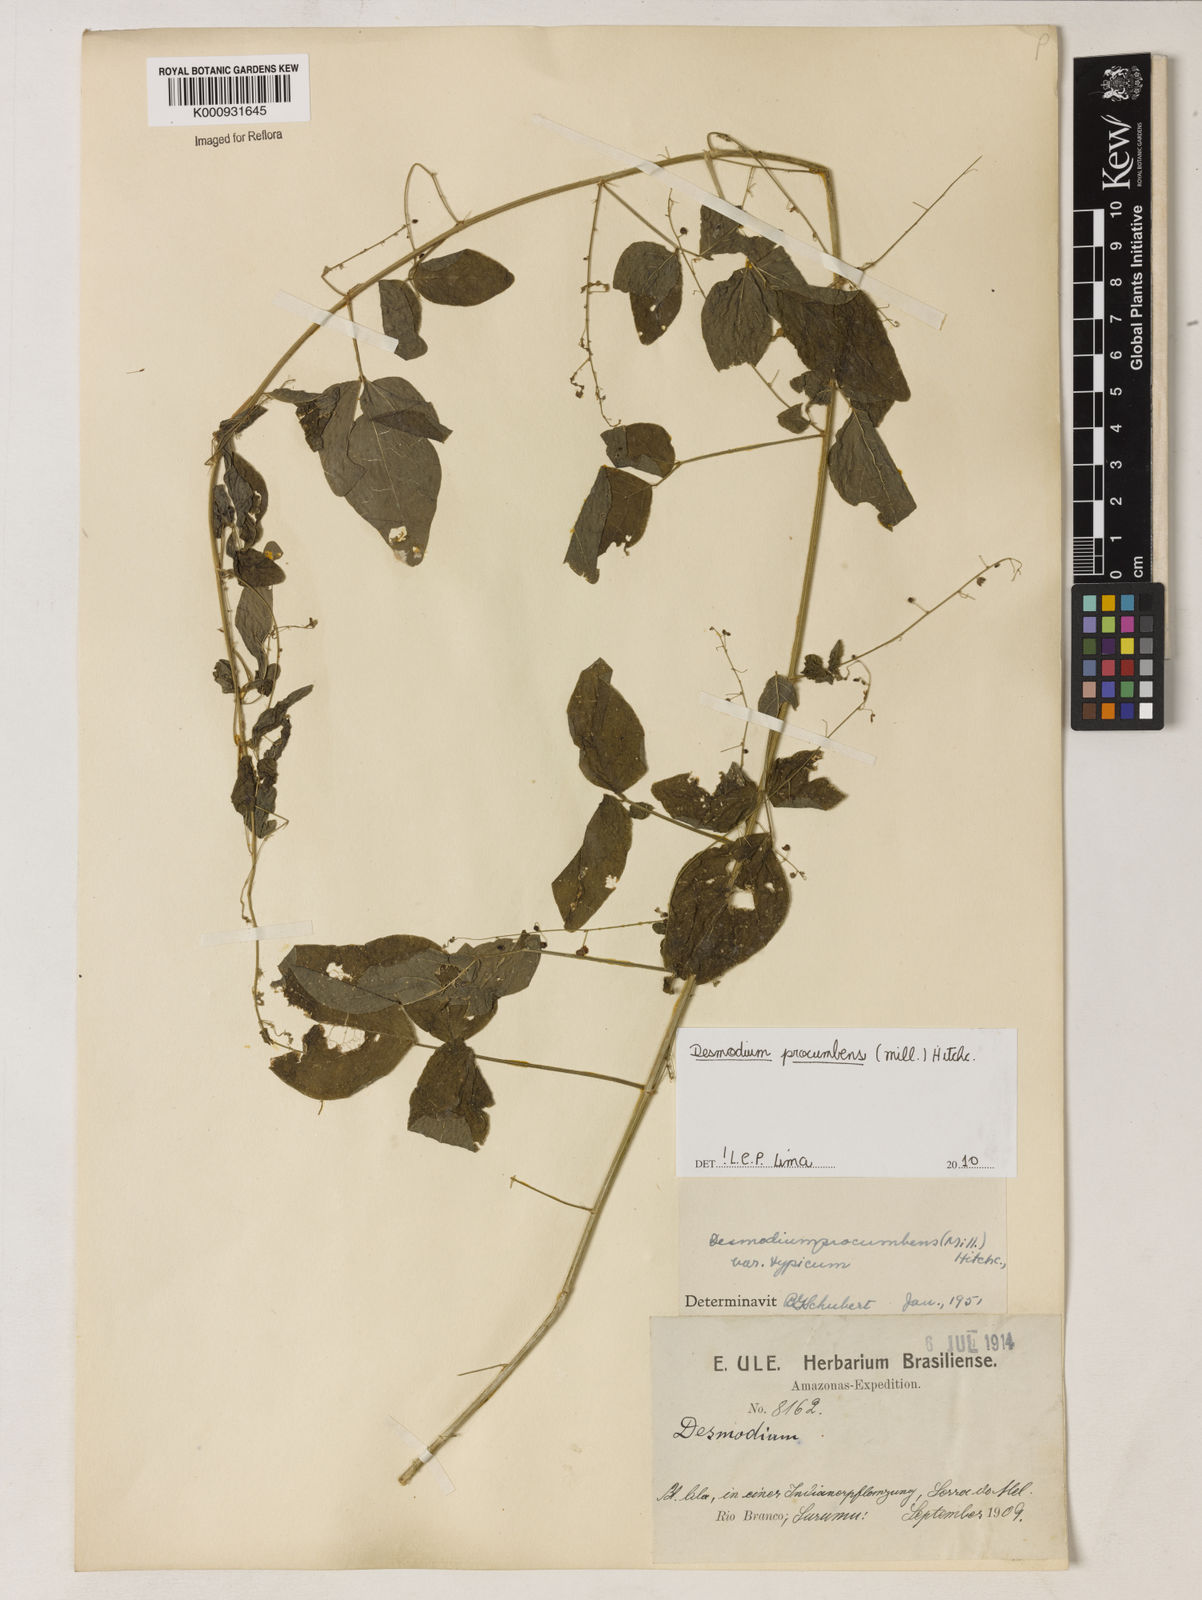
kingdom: Plantae
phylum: Tracheophyta
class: Magnoliopsida
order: Fabales
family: Fabaceae
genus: Desmodium
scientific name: Desmodium procumbens
